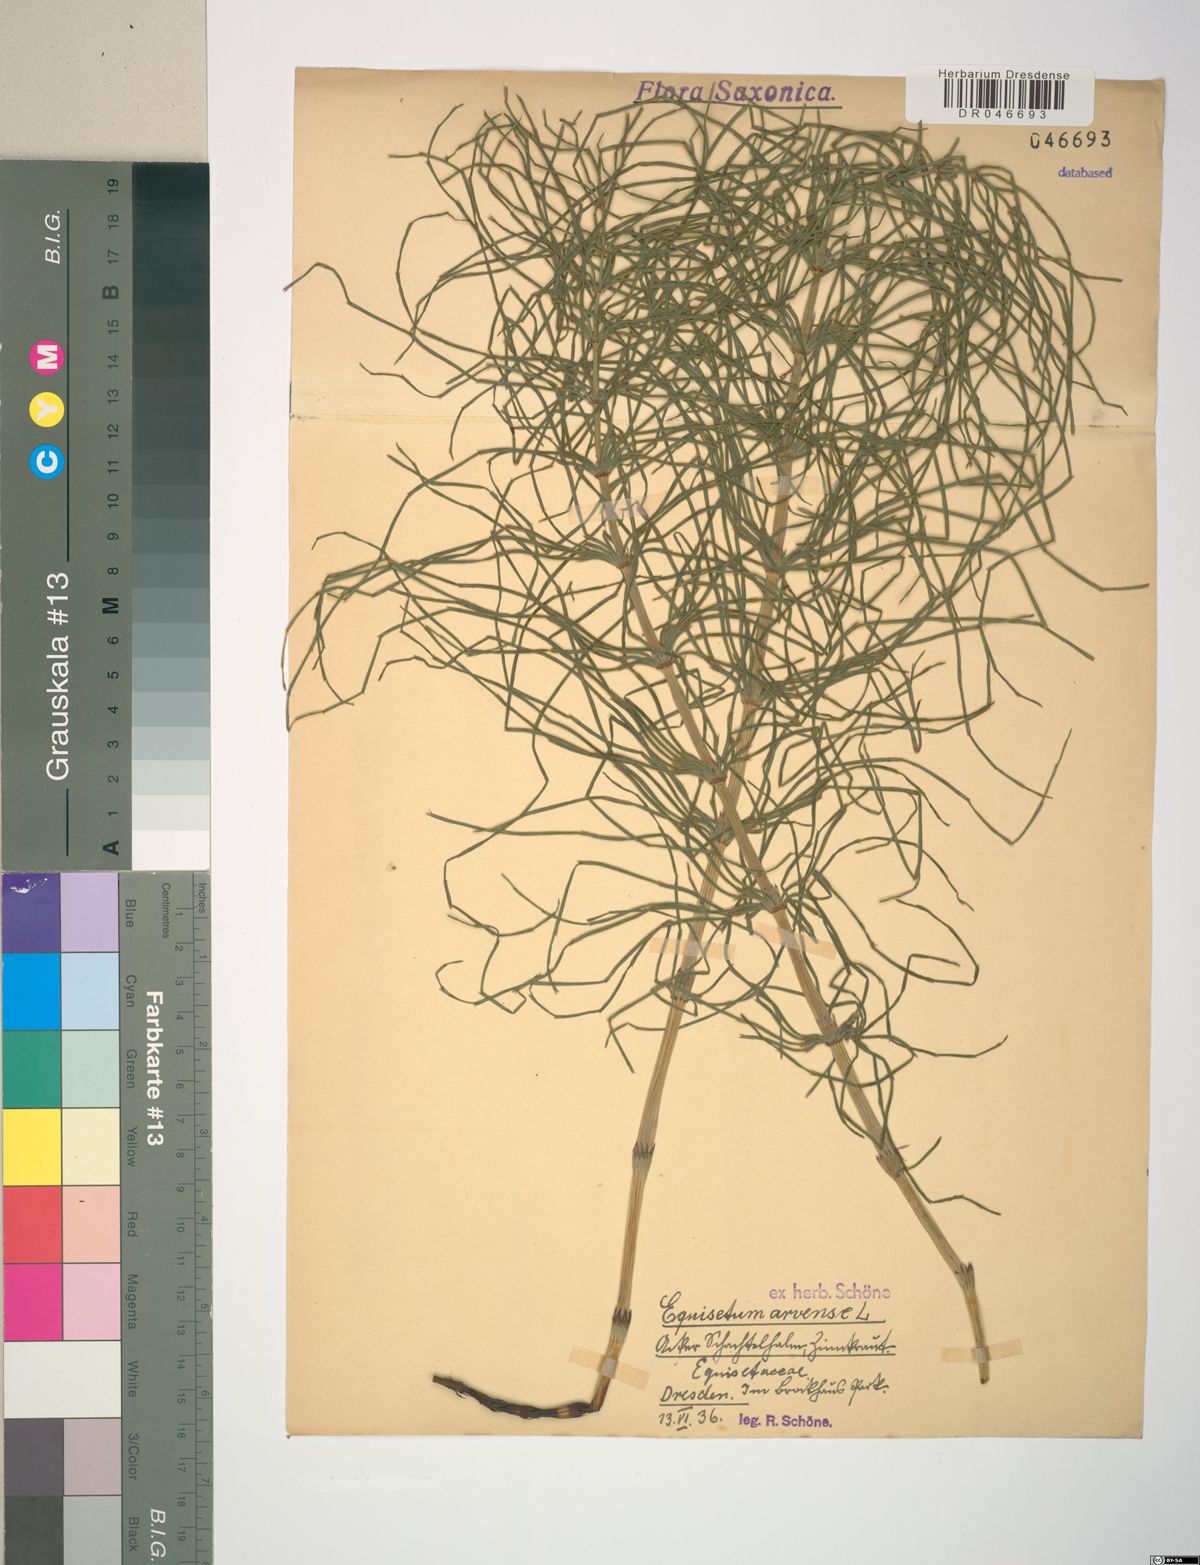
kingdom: Plantae
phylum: Tracheophyta
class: Polypodiopsida
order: Equisetales
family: Equisetaceae
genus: Equisetum
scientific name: Equisetum arvense
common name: Field horsetail
